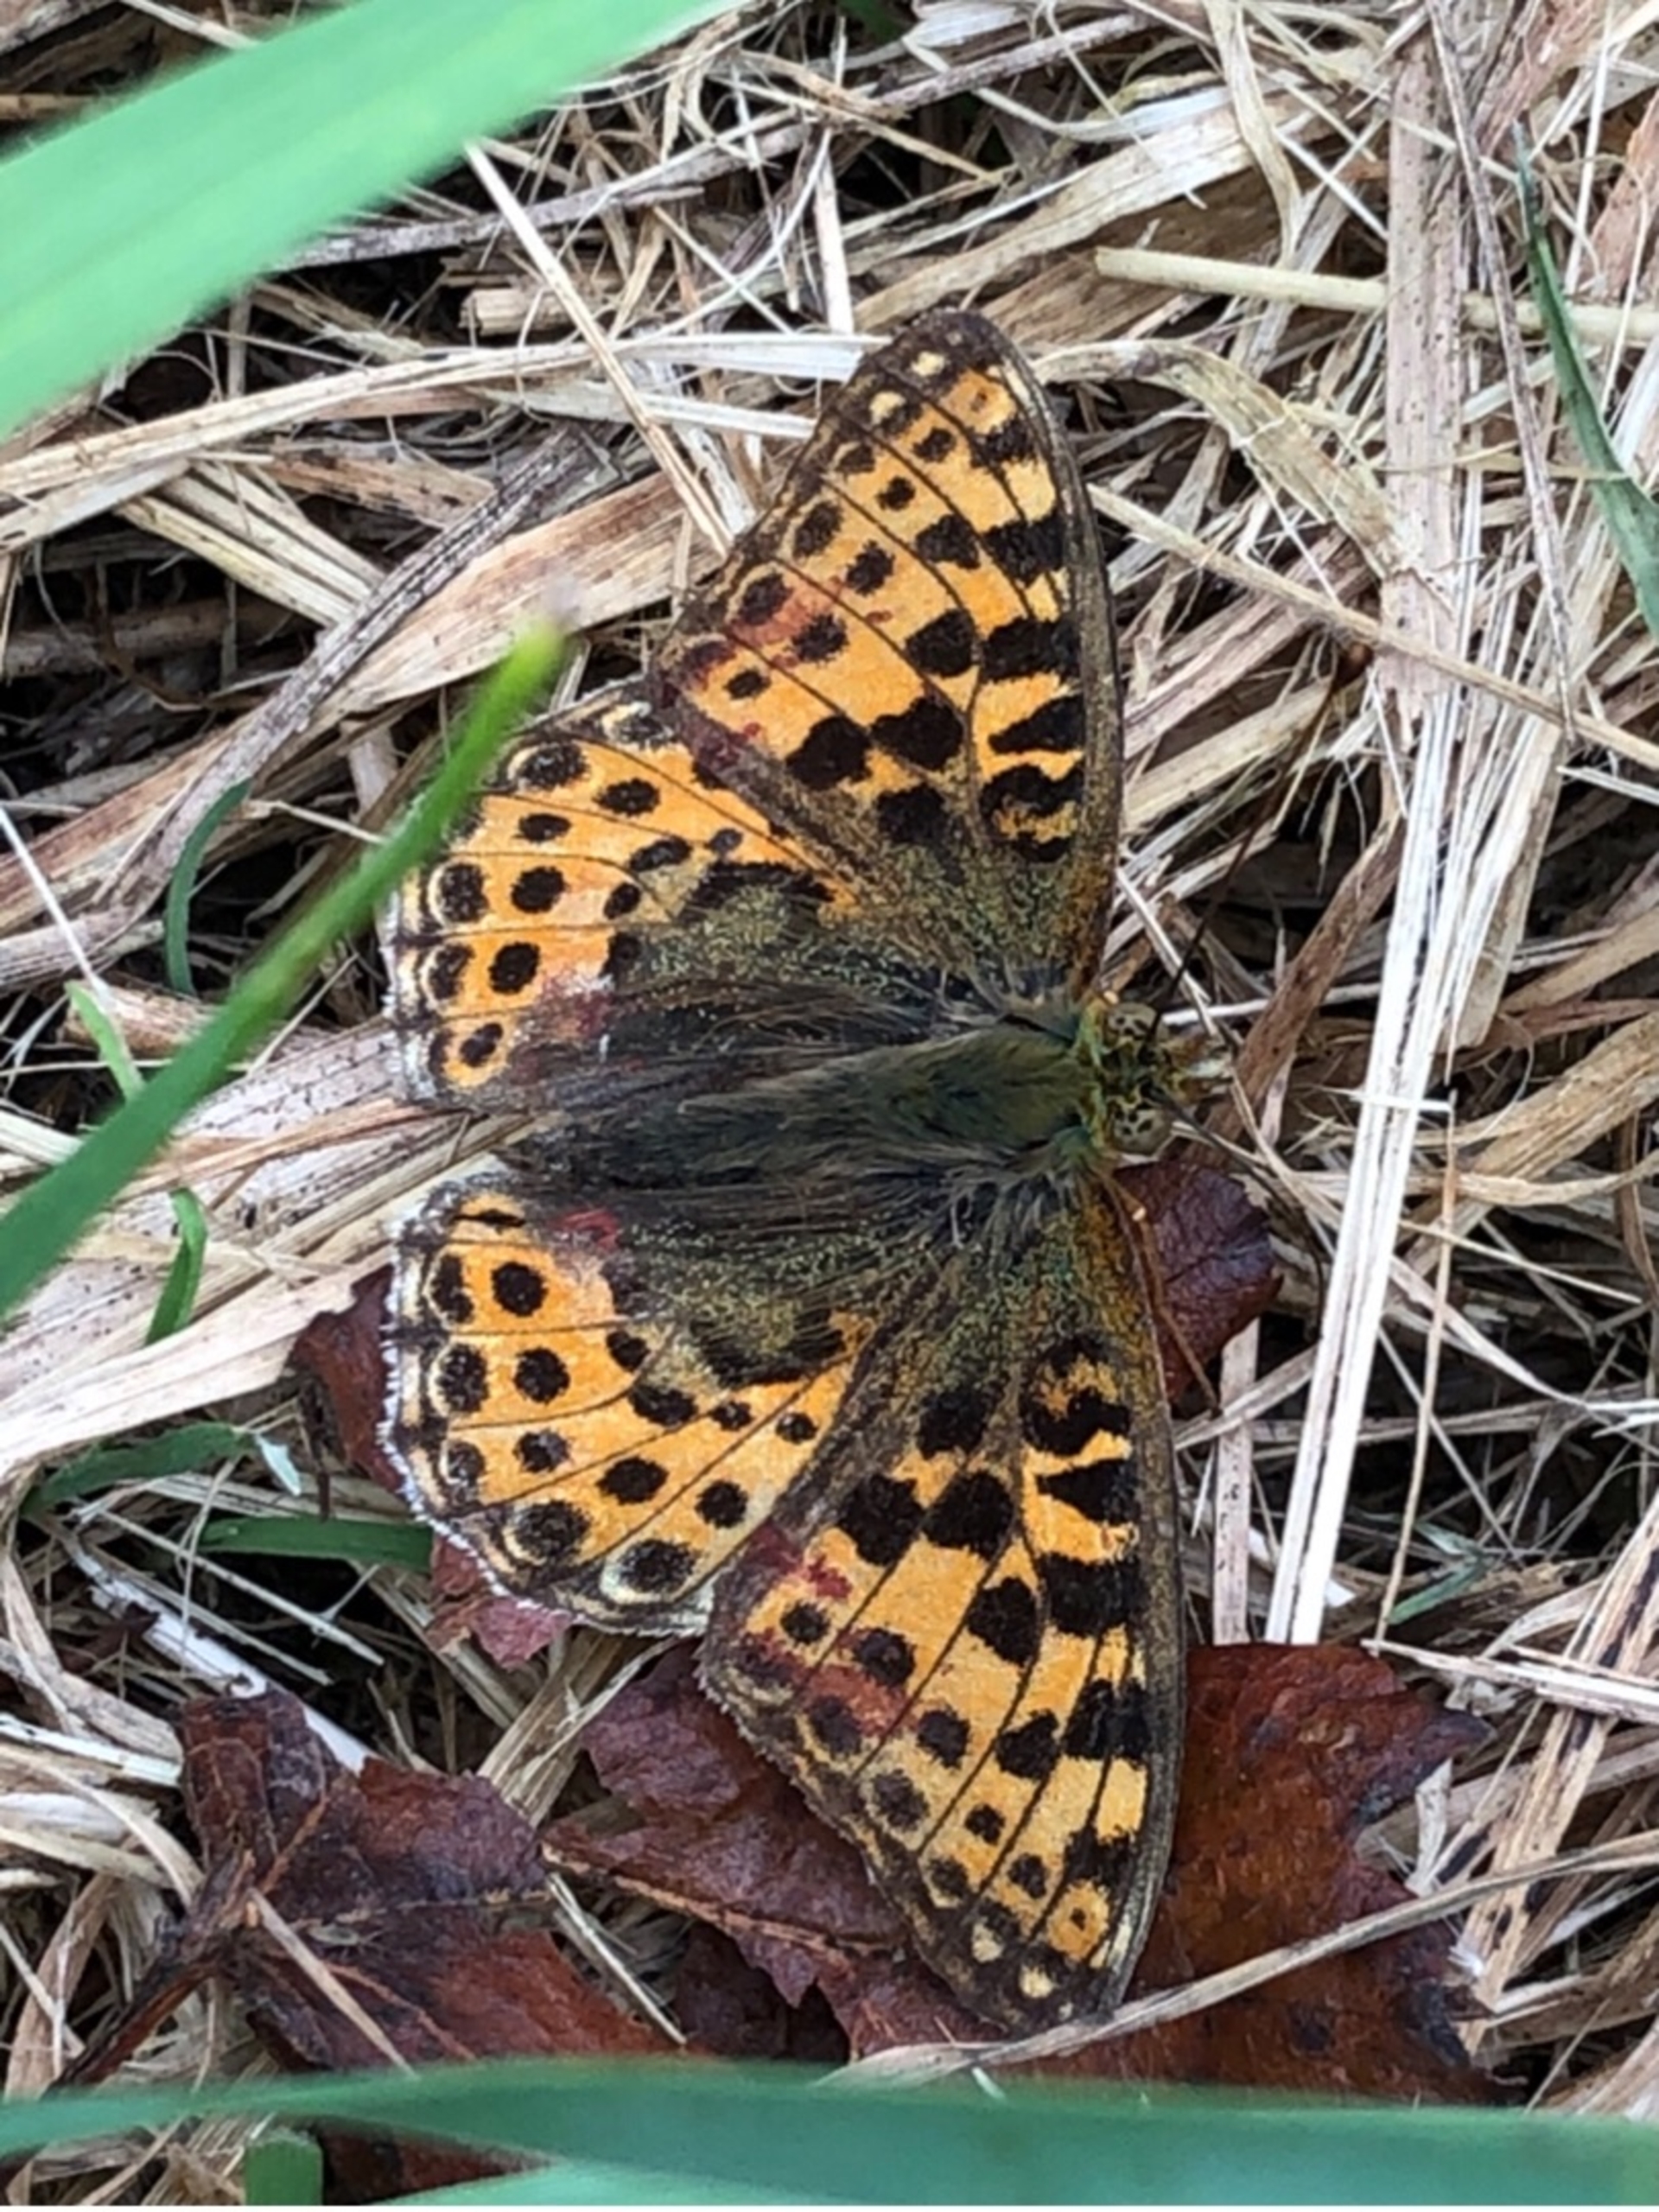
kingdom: Animalia
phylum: Arthropoda
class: Insecta
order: Lepidoptera
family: Nymphalidae
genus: Issoria
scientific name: Issoria lathonia
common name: Storplettet perlemorsommerfugl
